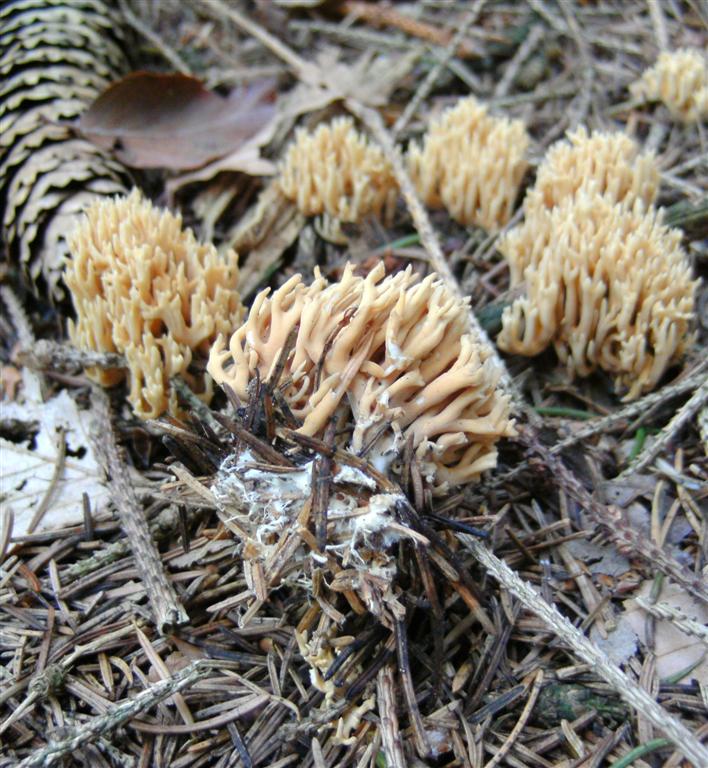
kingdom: Fungi
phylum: Basidiomycota
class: Agaricomycetes
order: Gomphales
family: Gomphaceae
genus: Phaeoclavulina
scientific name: Phaeoclavulina eumorpha
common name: gran-koralsvamp
